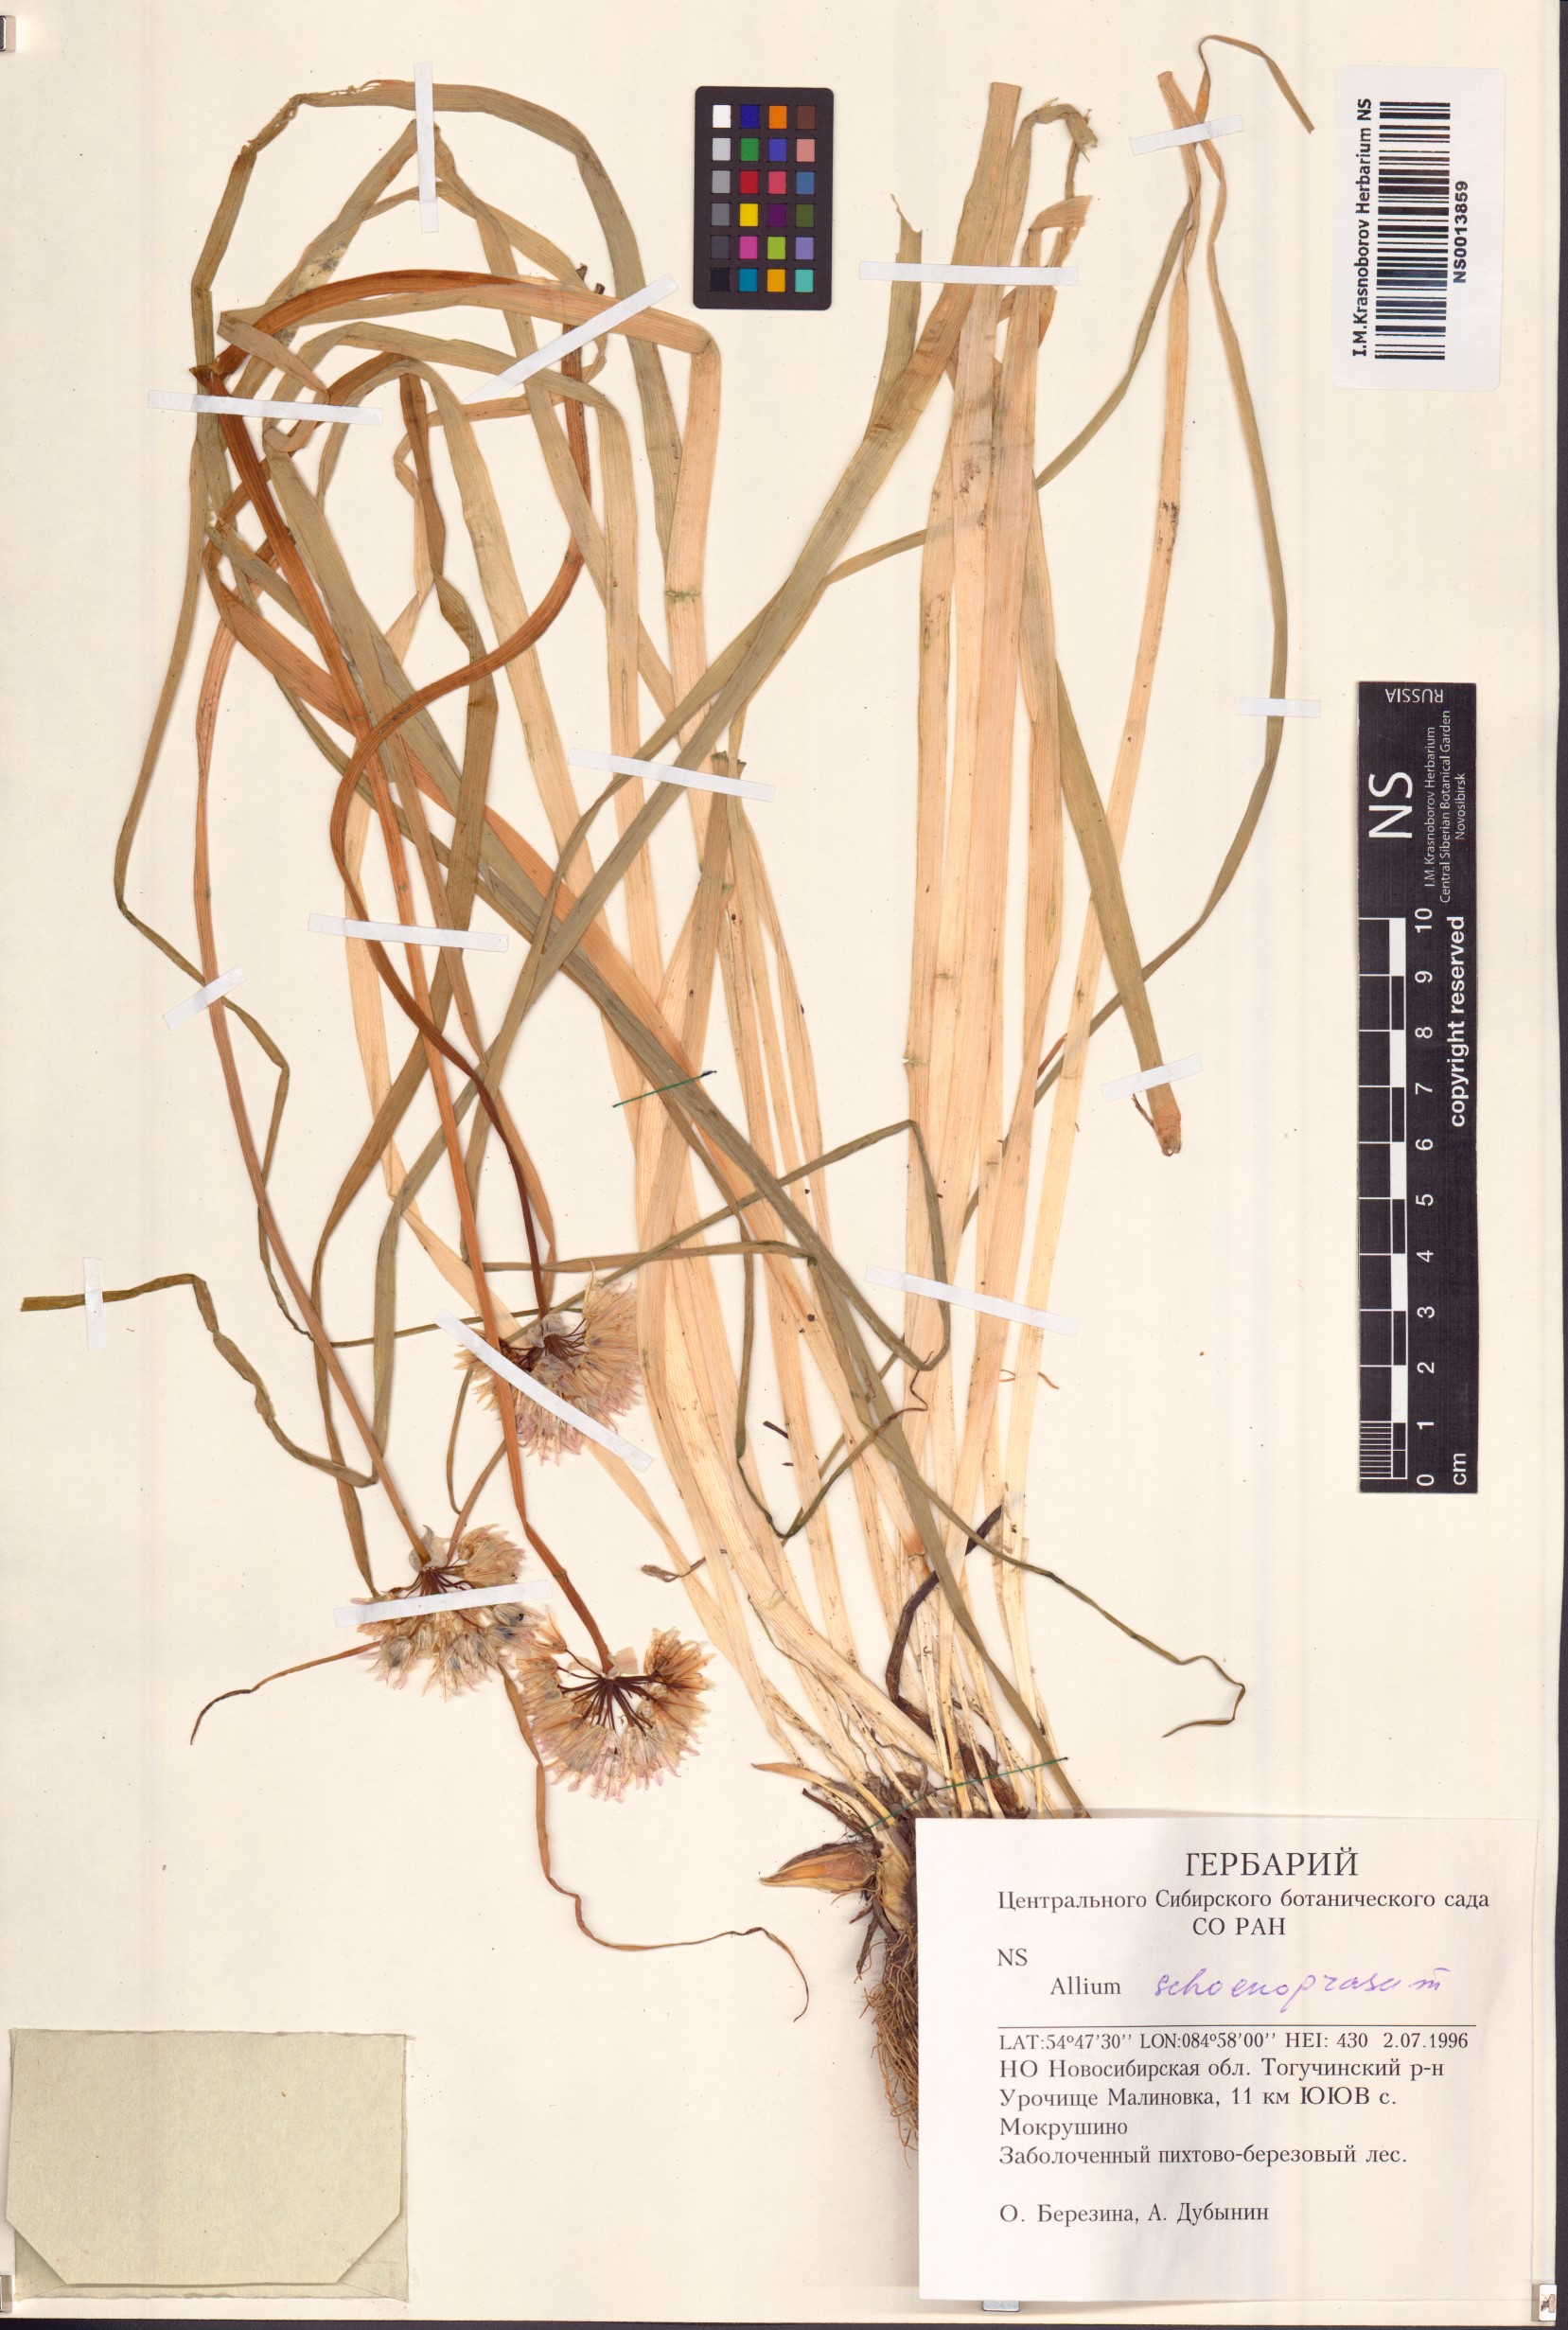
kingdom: Plantae
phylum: Tracheophyta
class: Liliopsida
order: Asparagales
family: Amaryllidaceae
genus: Allium
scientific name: Allium schoenoprasum
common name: Chives
